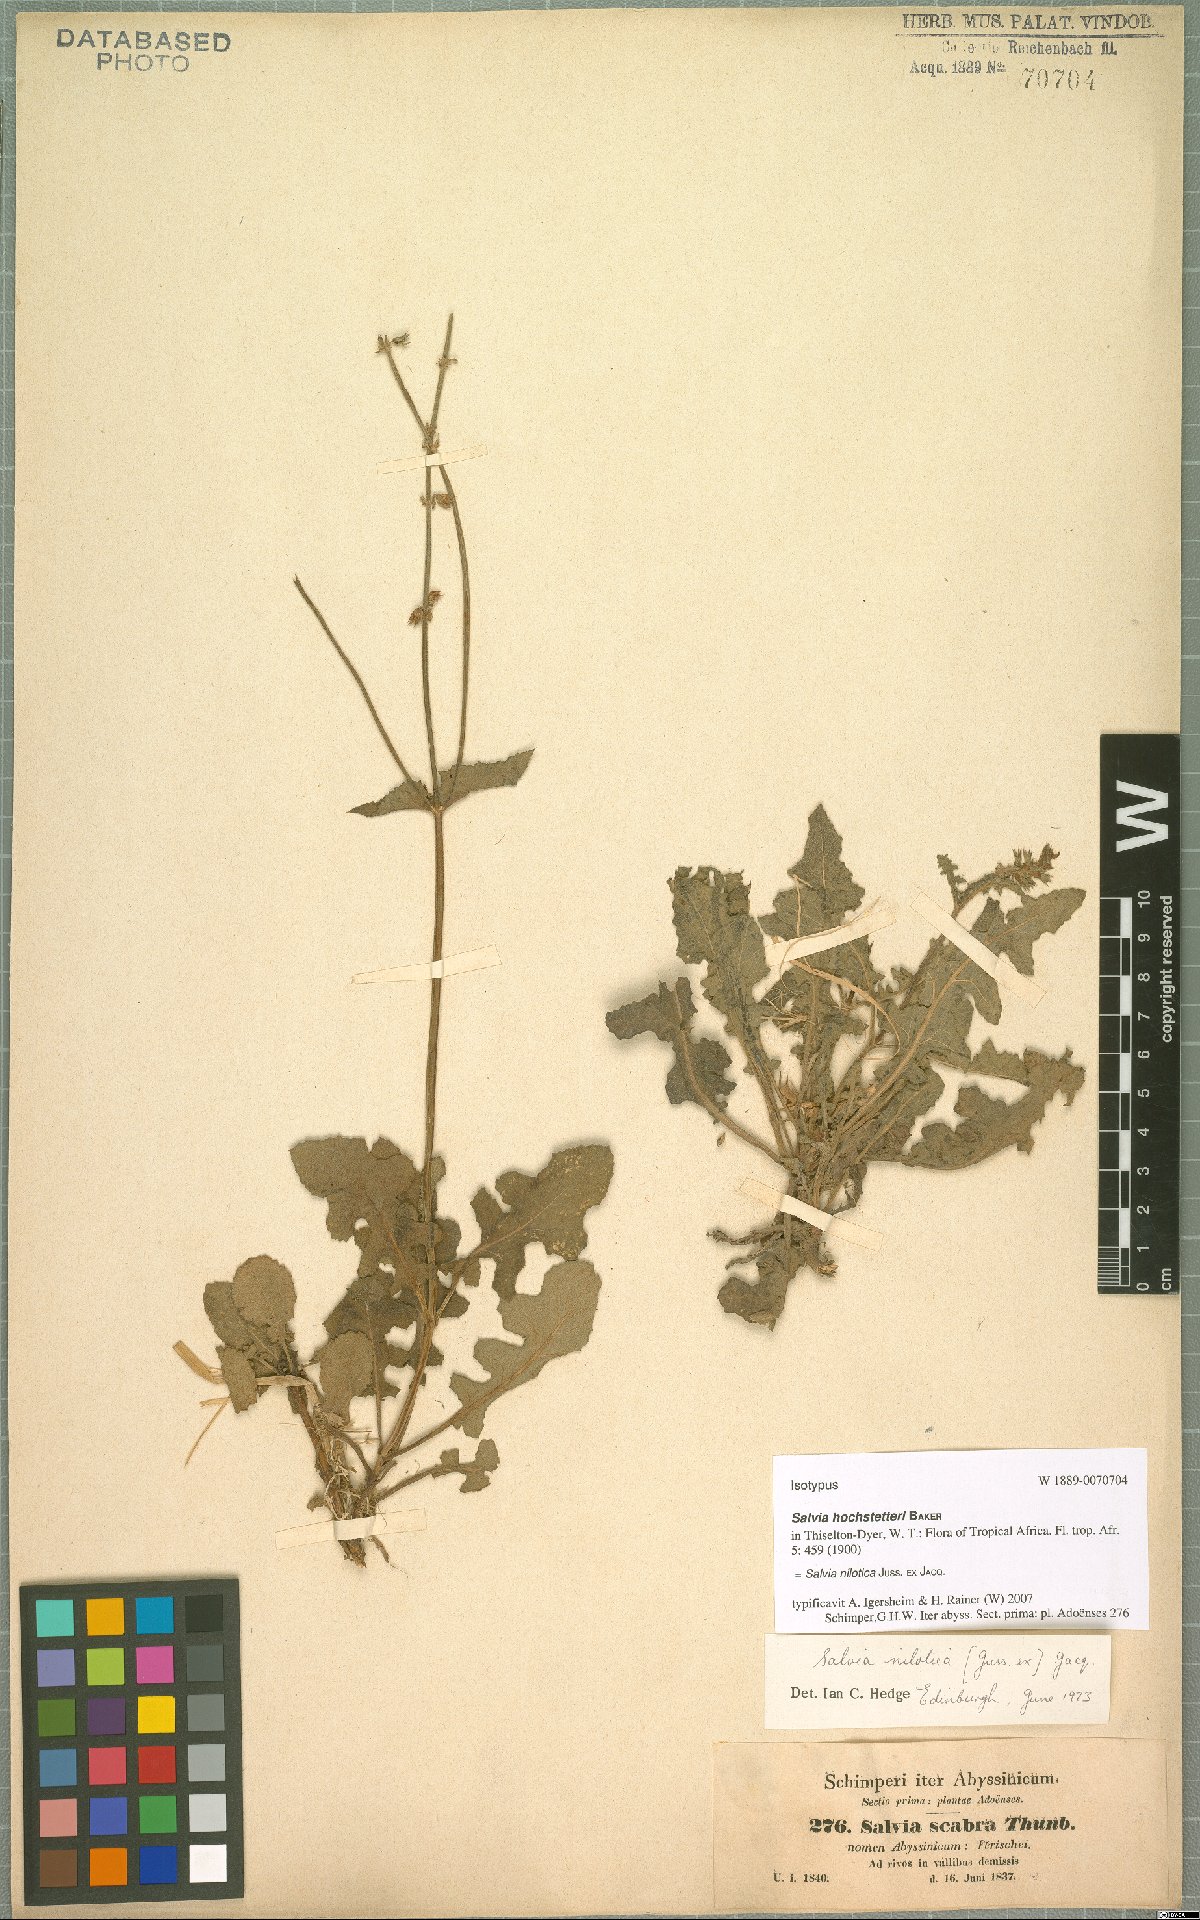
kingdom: Plantae
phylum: Tracheophyta
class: Magnoliopsida
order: Lamiales
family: Lamiaceae
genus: Salvia
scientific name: Salvia nilotica
